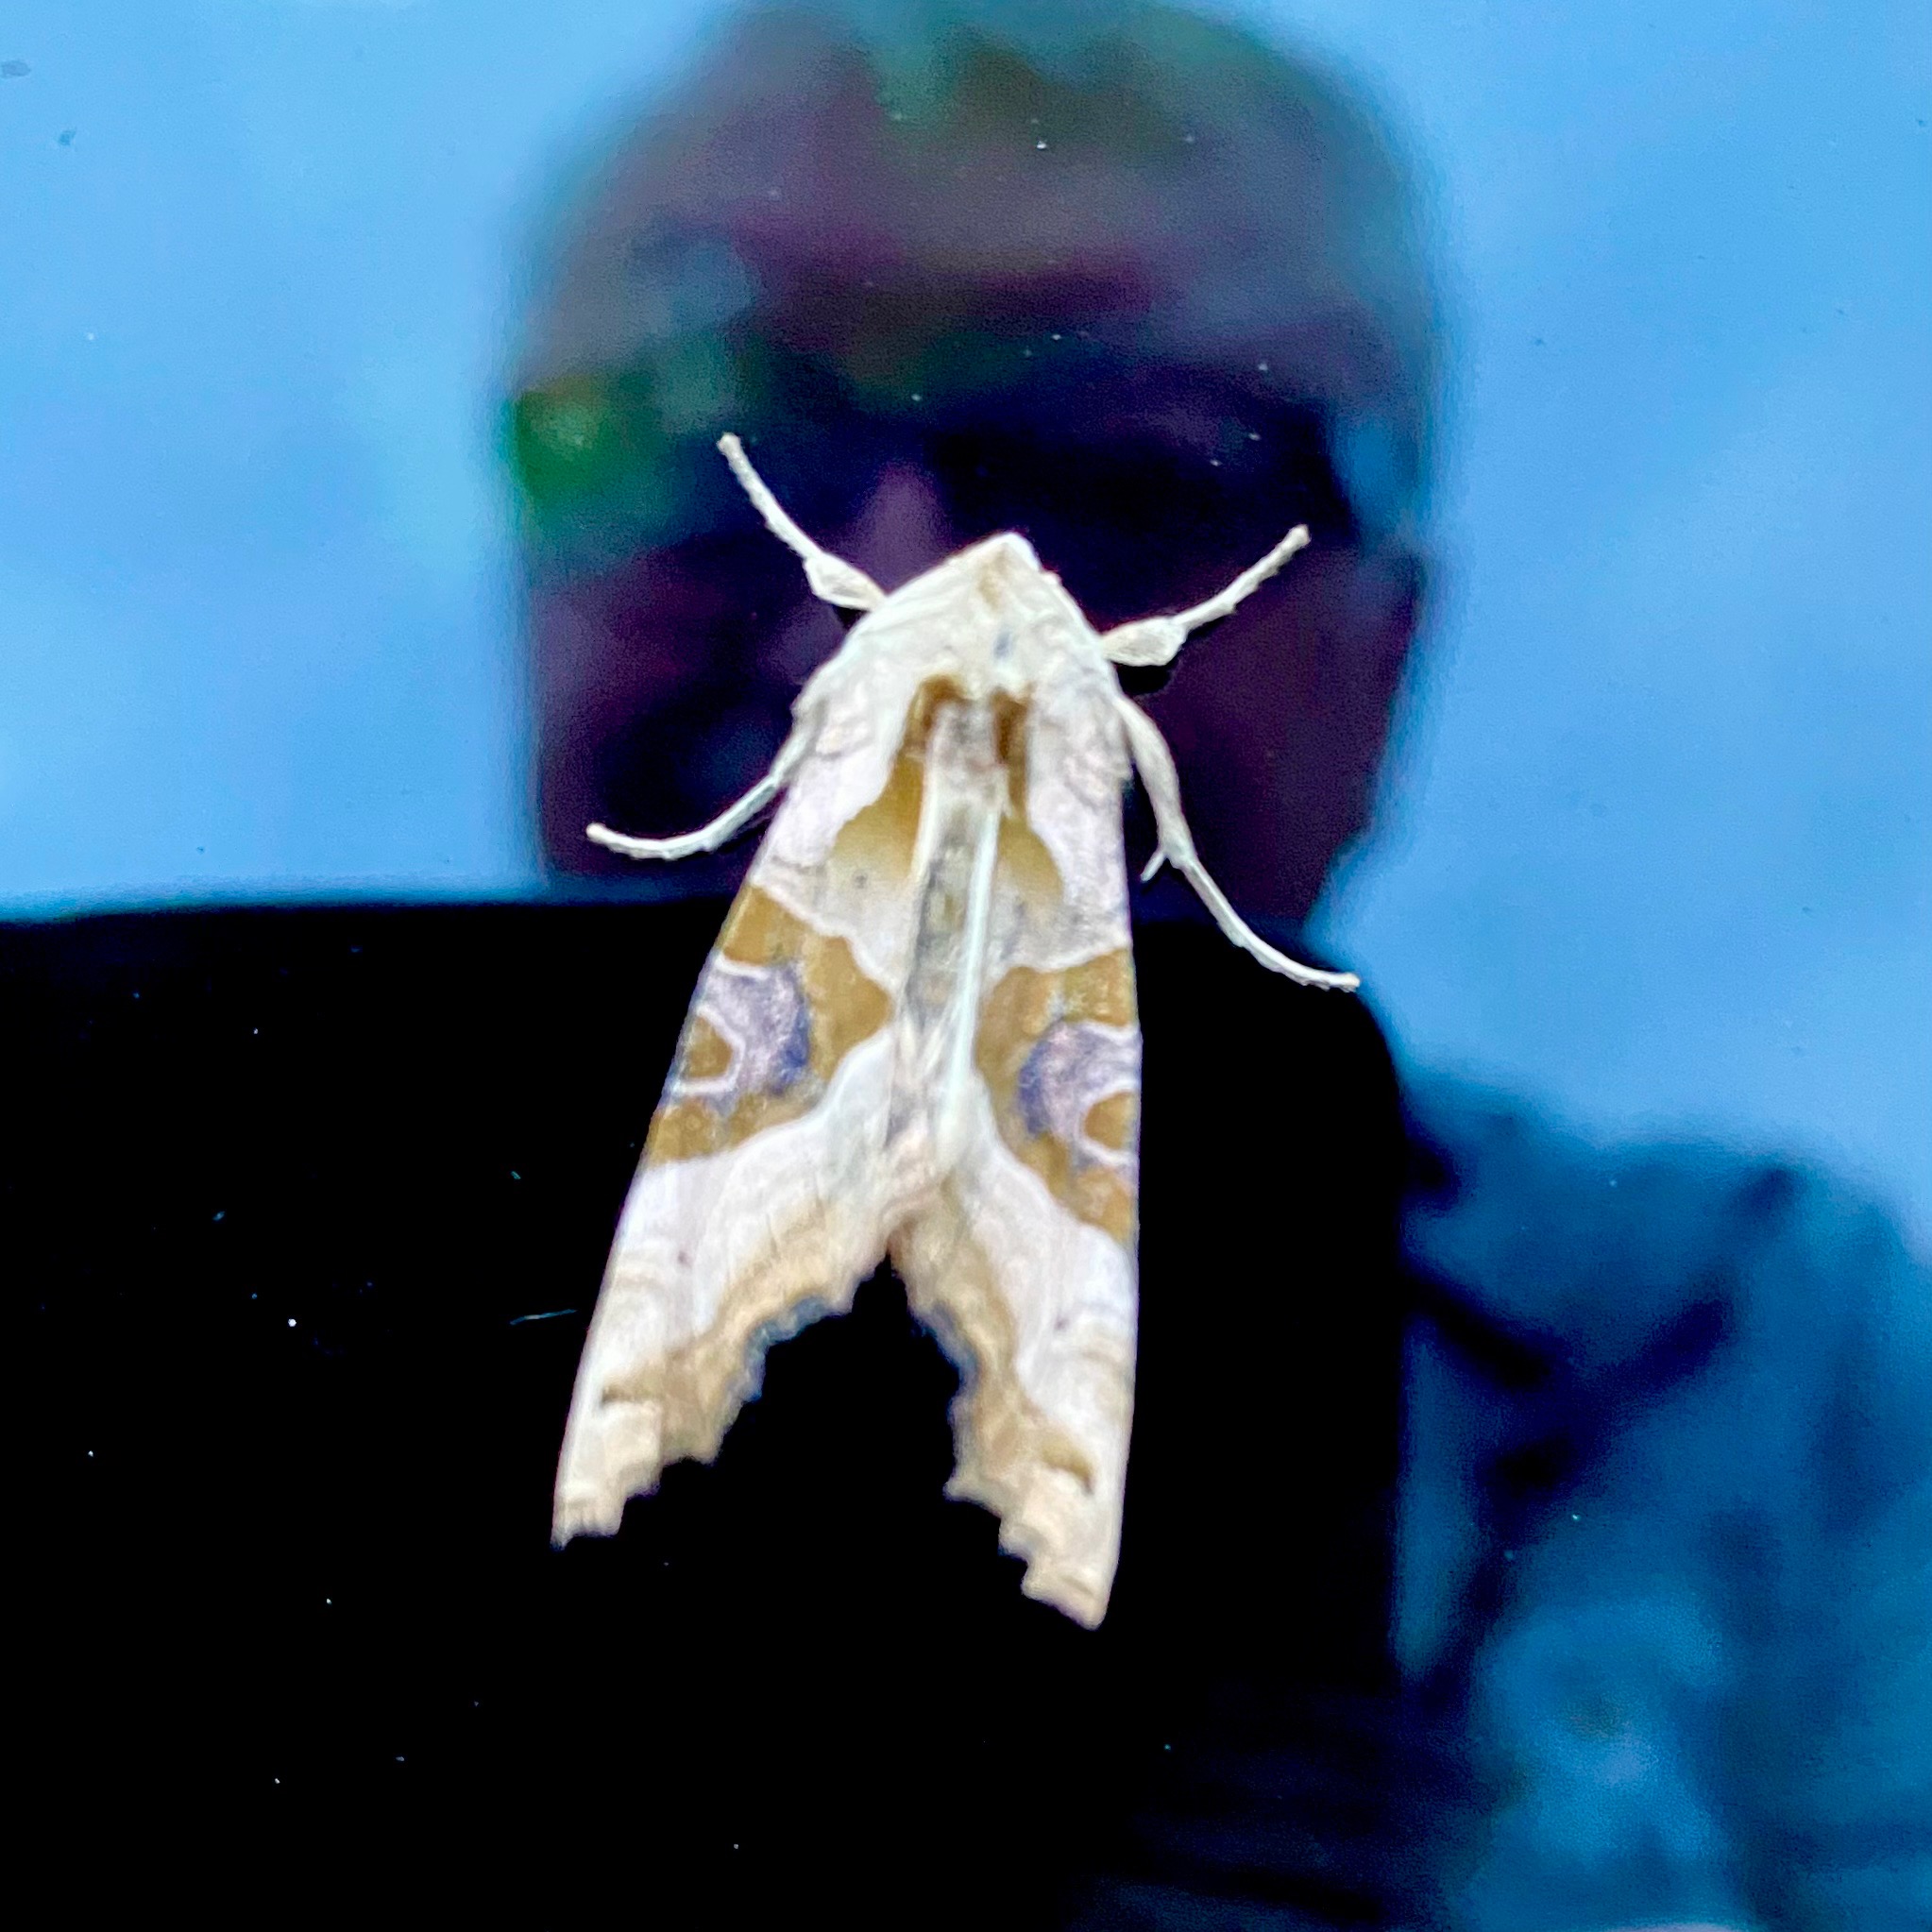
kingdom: Animalia
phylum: Arthropoda
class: Insecta
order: Lepidoptera
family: Noctuidae
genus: Phlogophora
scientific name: Phlogophora meticulosa
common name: Agatugle
